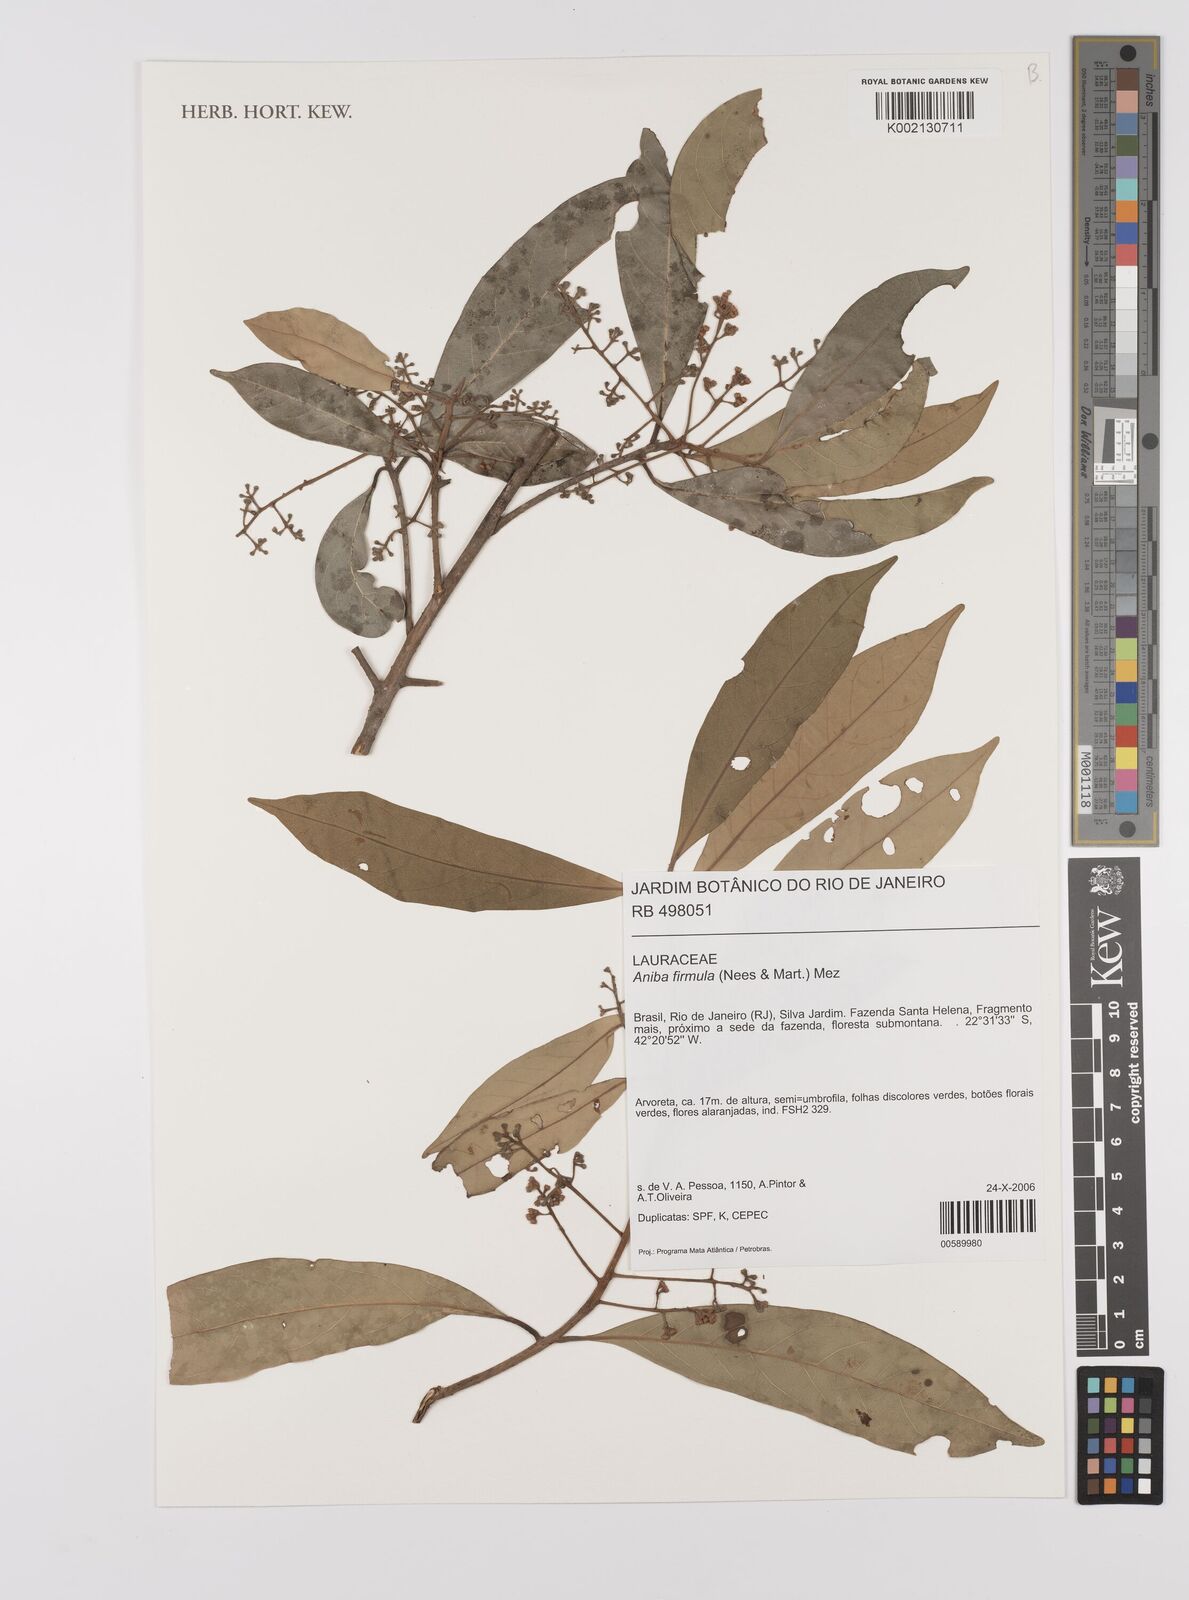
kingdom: Plantae
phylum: Tracheophyta
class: Magnoliopsida
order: Laurales
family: Lauraceae
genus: Aniba
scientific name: Aniba firmula
